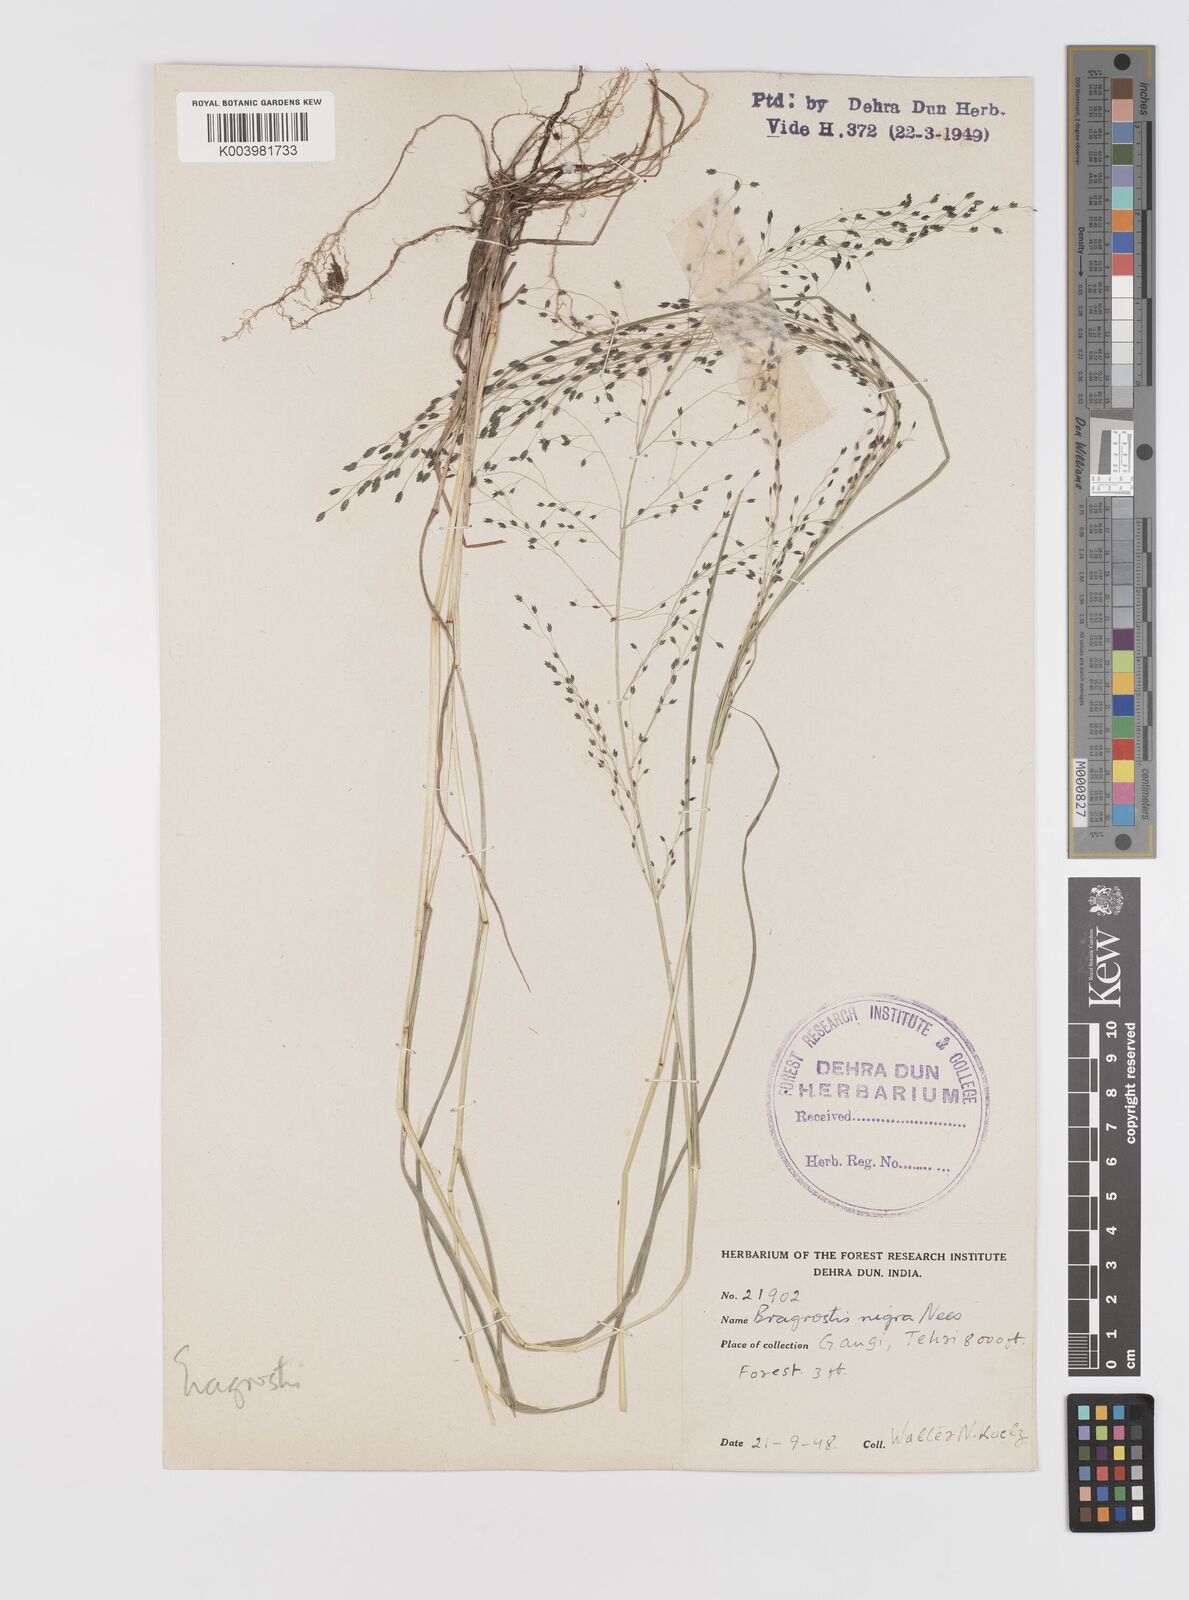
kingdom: Plantae
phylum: Tracheophyta
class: Liliopsida
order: Poales
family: Poaceae
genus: Eragrostis
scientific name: Eragrostis nigra
